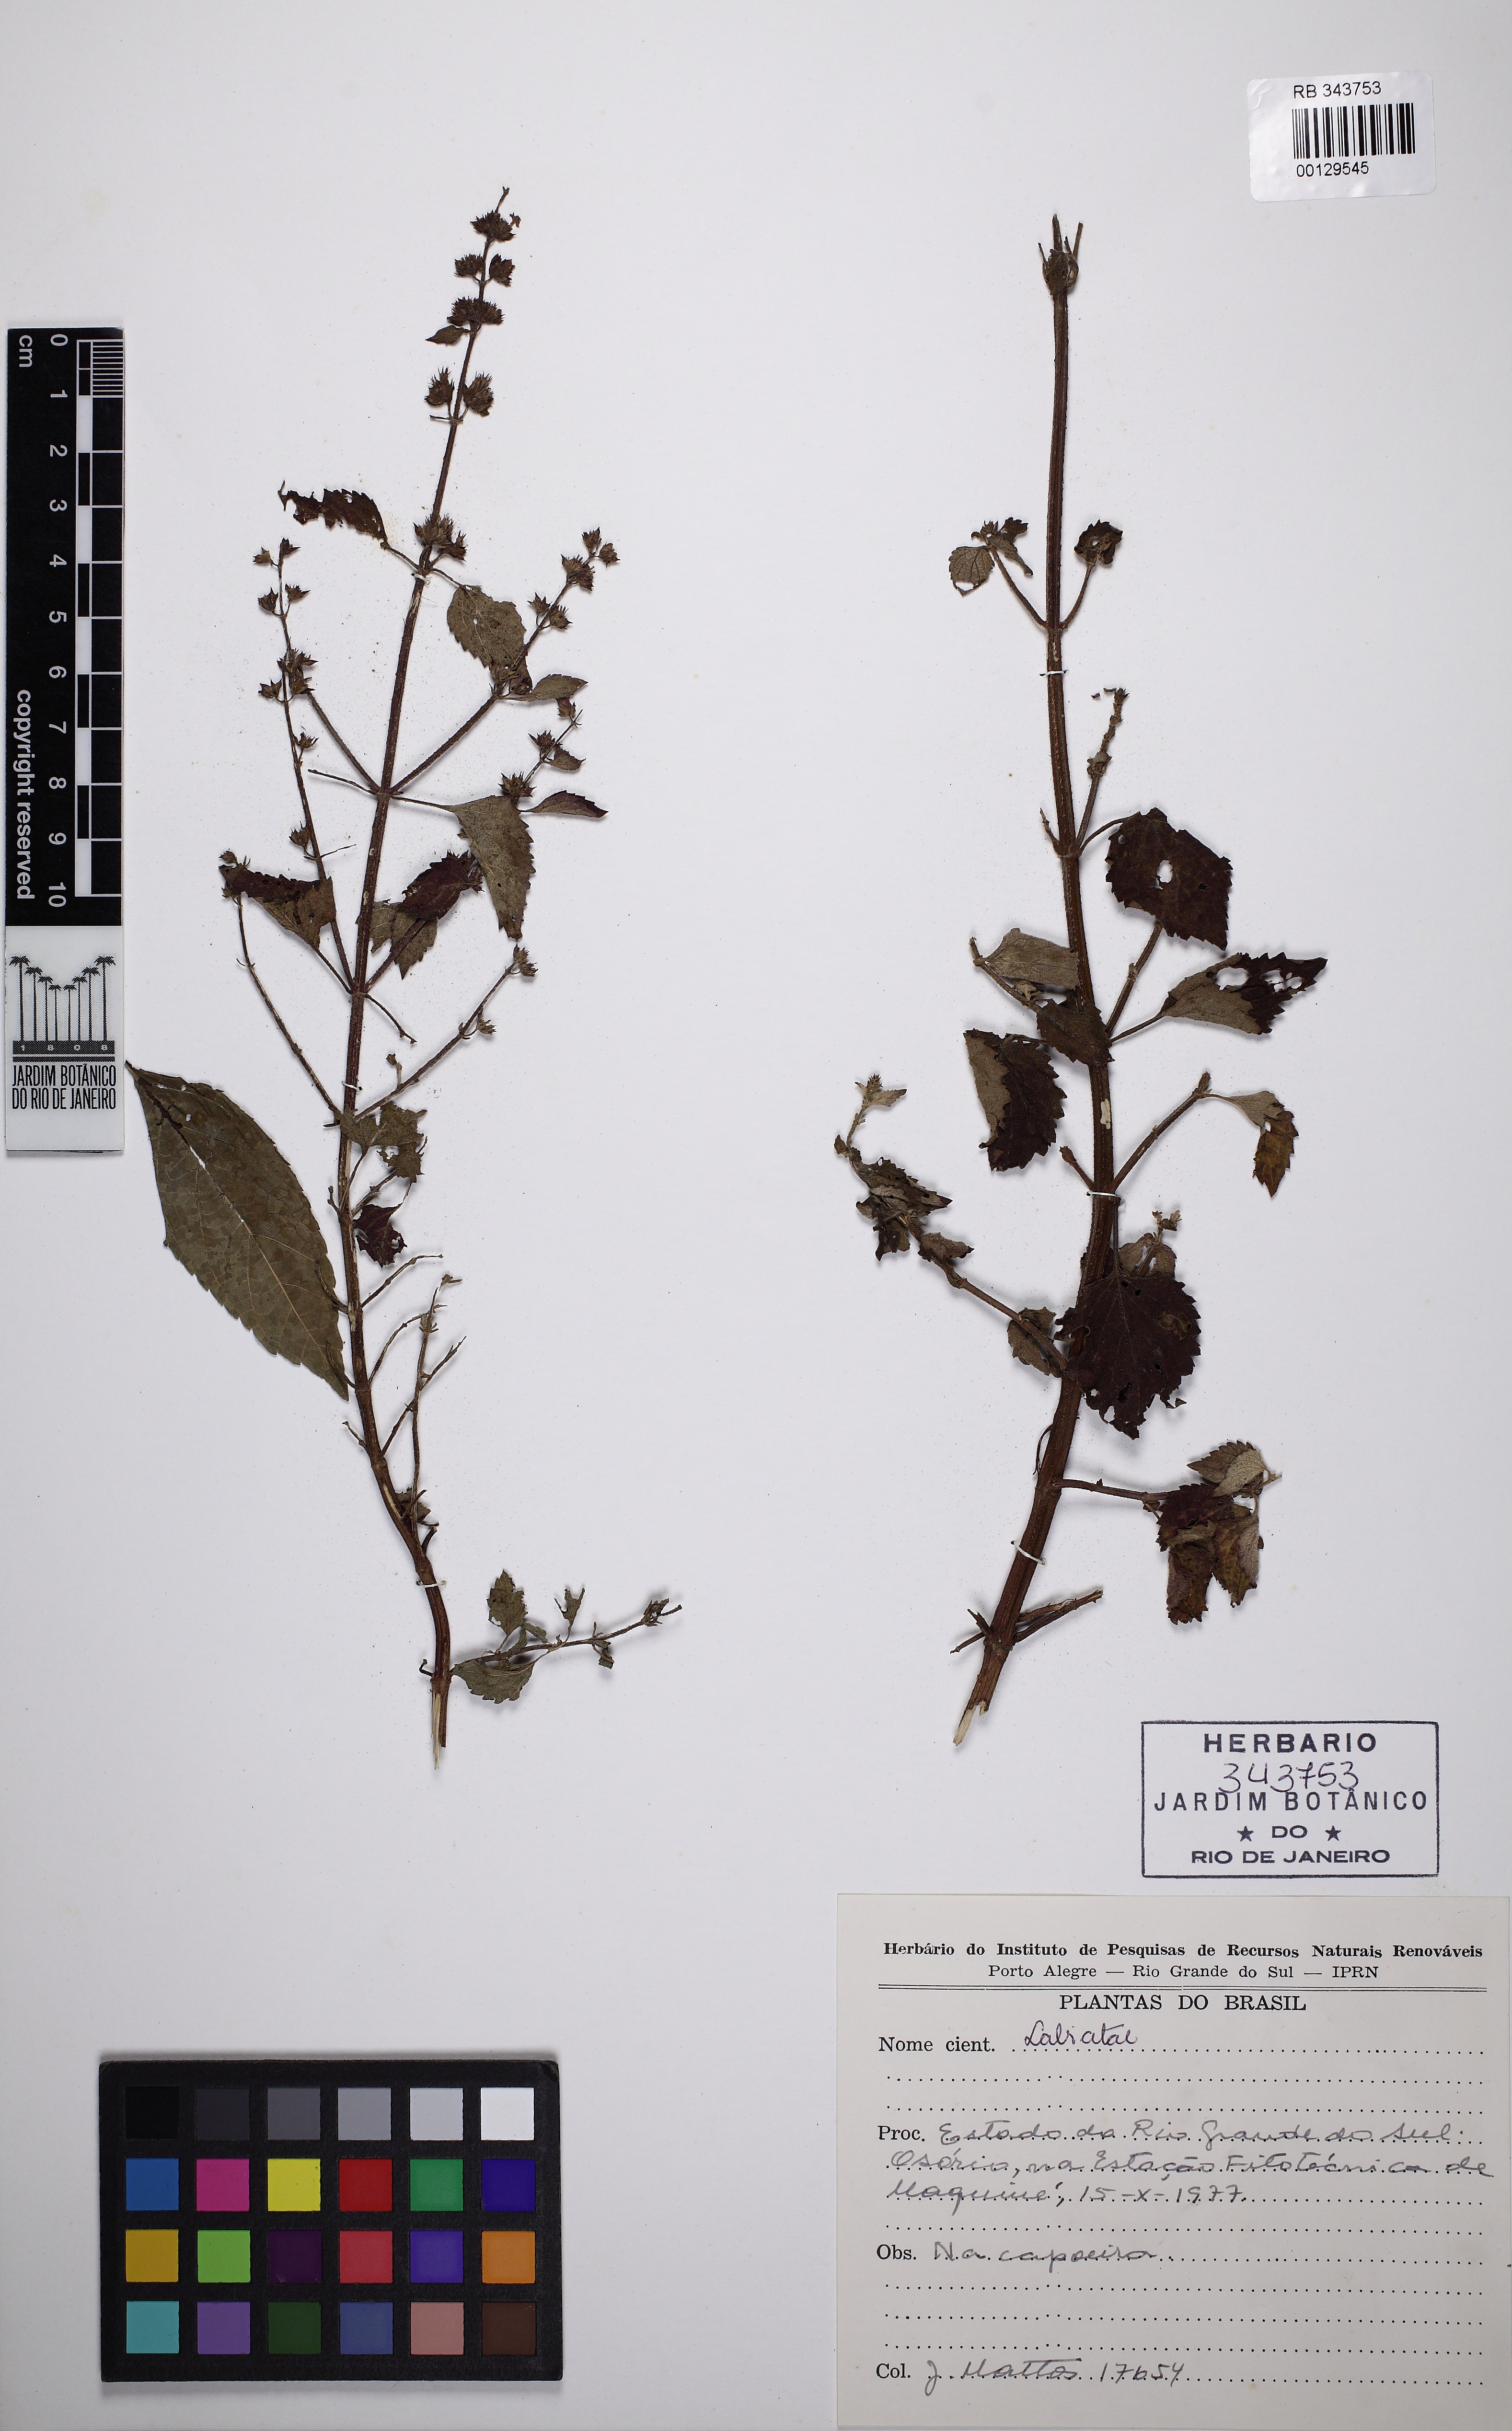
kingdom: Plantae
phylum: Tracheophyta
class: Magnoliopsida
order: Lamiales
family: Lamiaceae
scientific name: Lamiaceae
